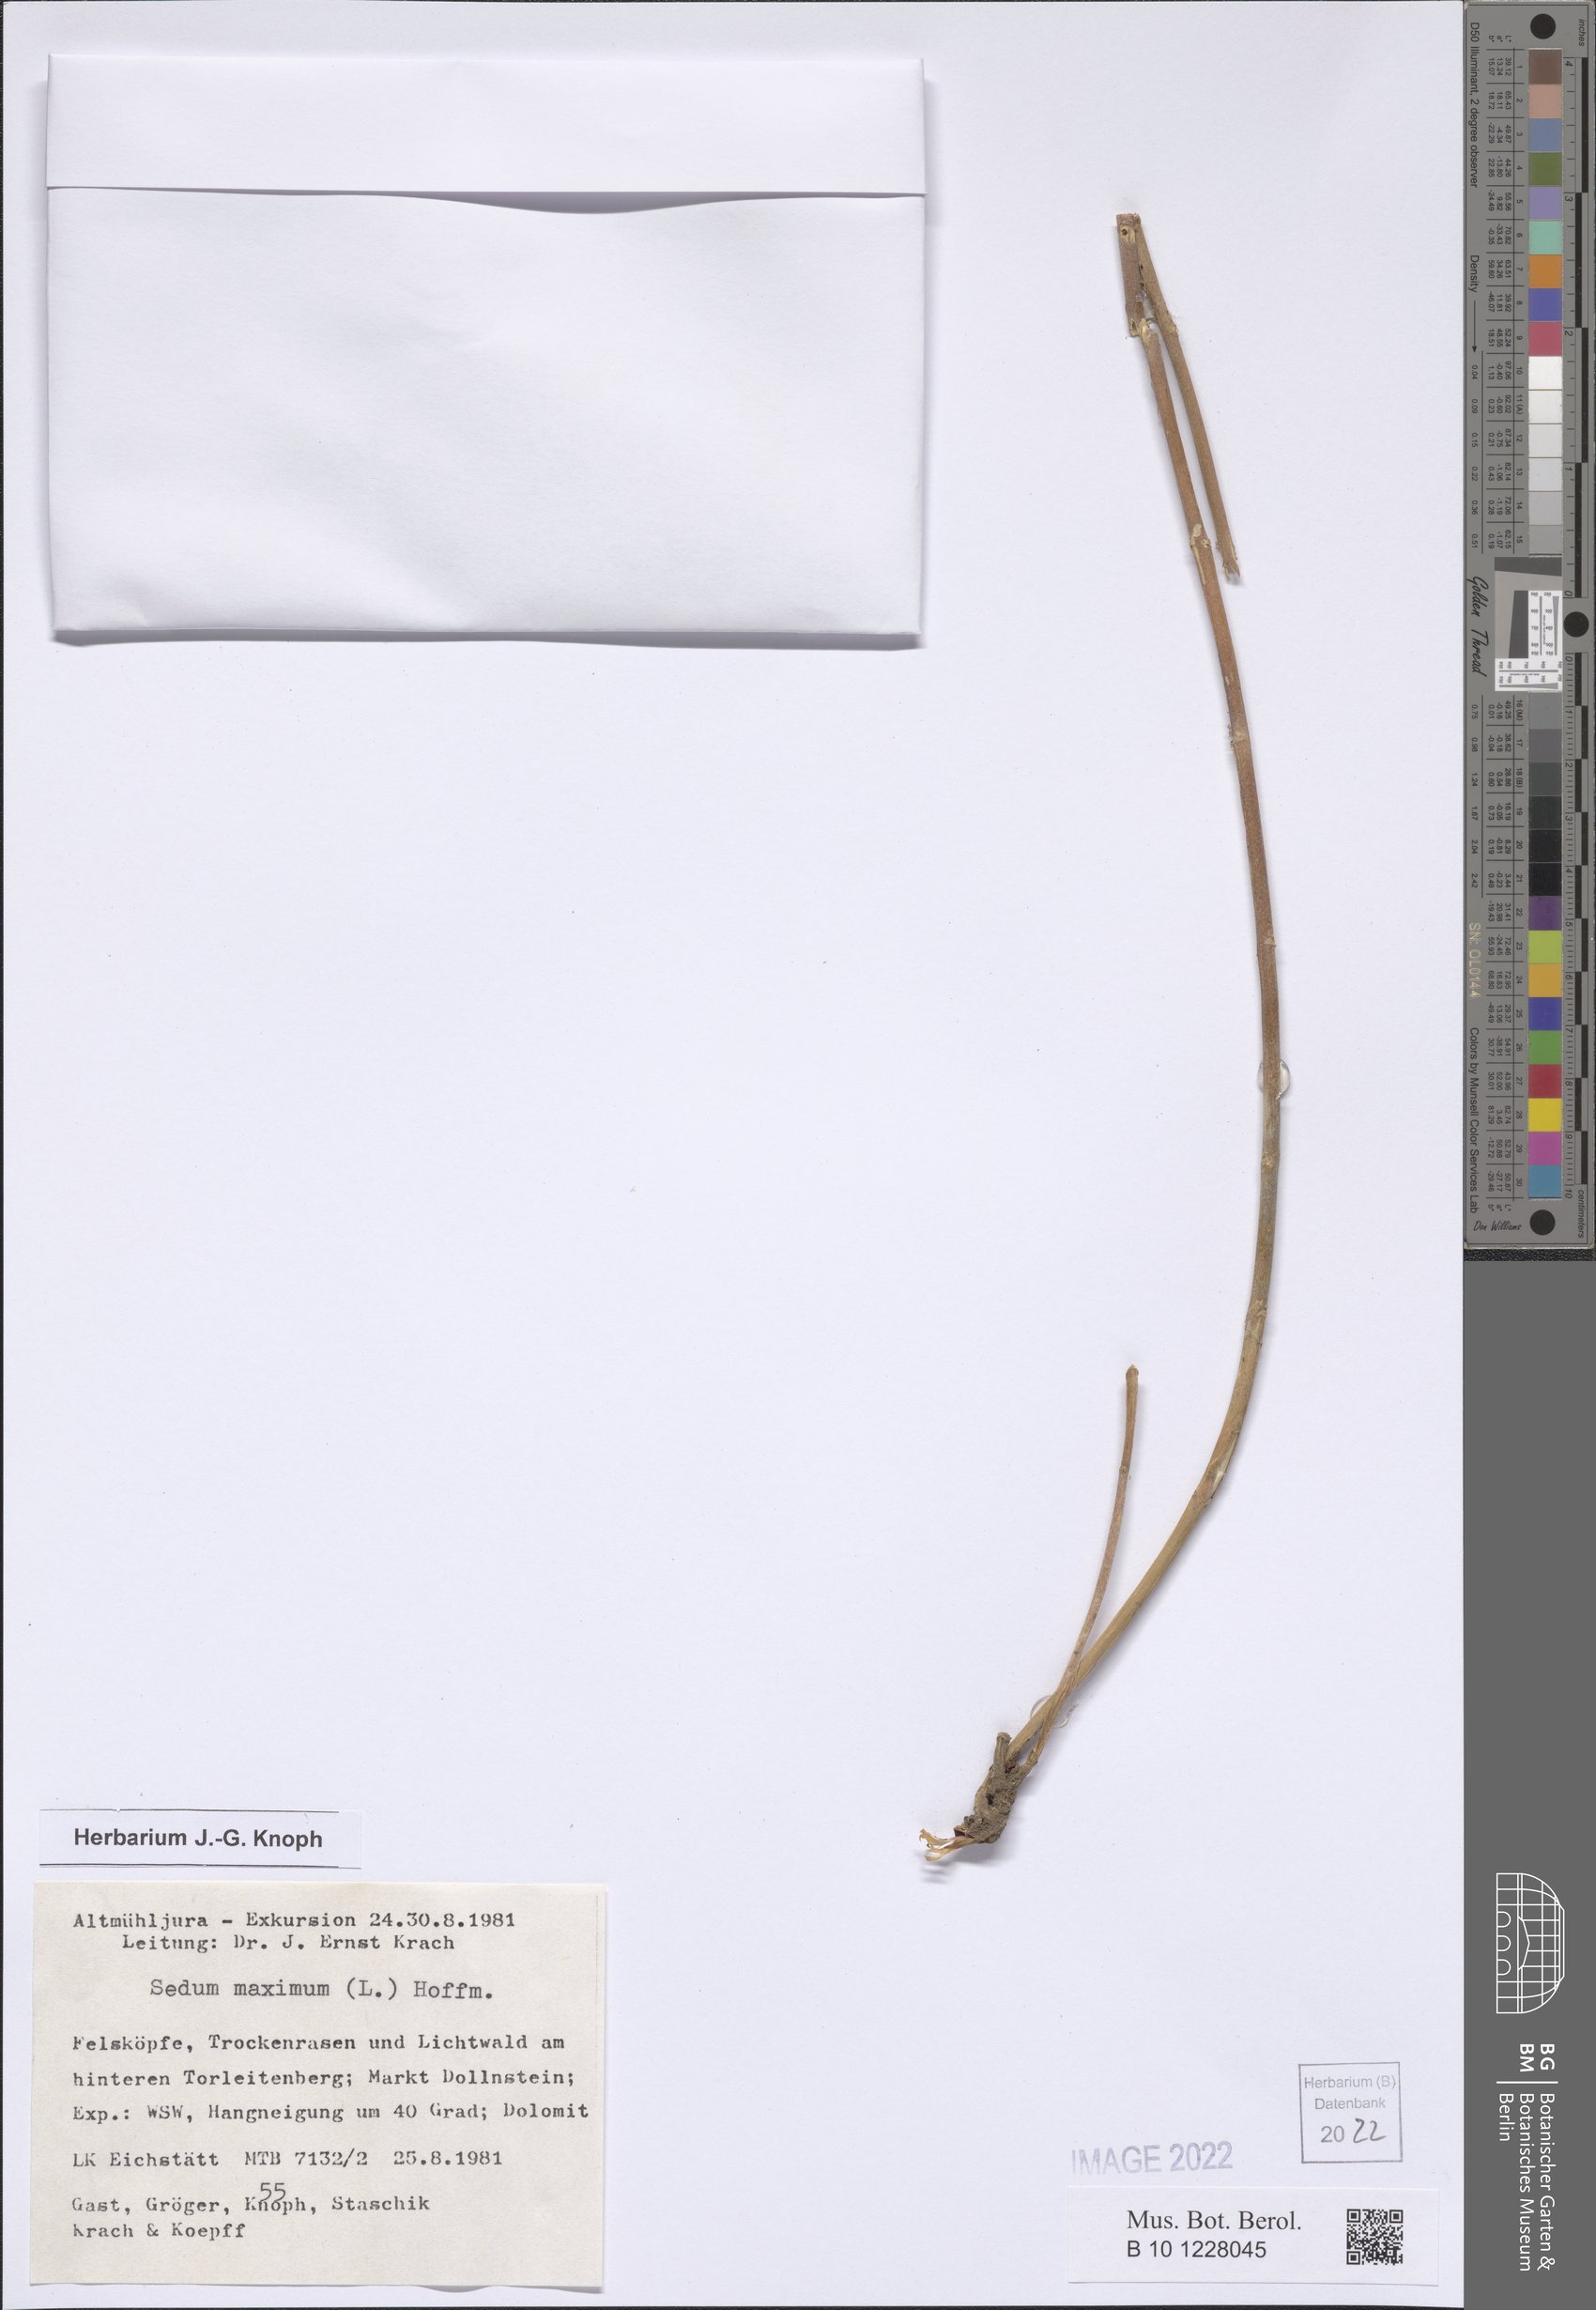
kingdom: Plantae
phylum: Tracheophyta
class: Magnoliopsida
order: Saxifragales
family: Crassulaceae
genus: Hylotelephium
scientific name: Hylotelephium maximum
